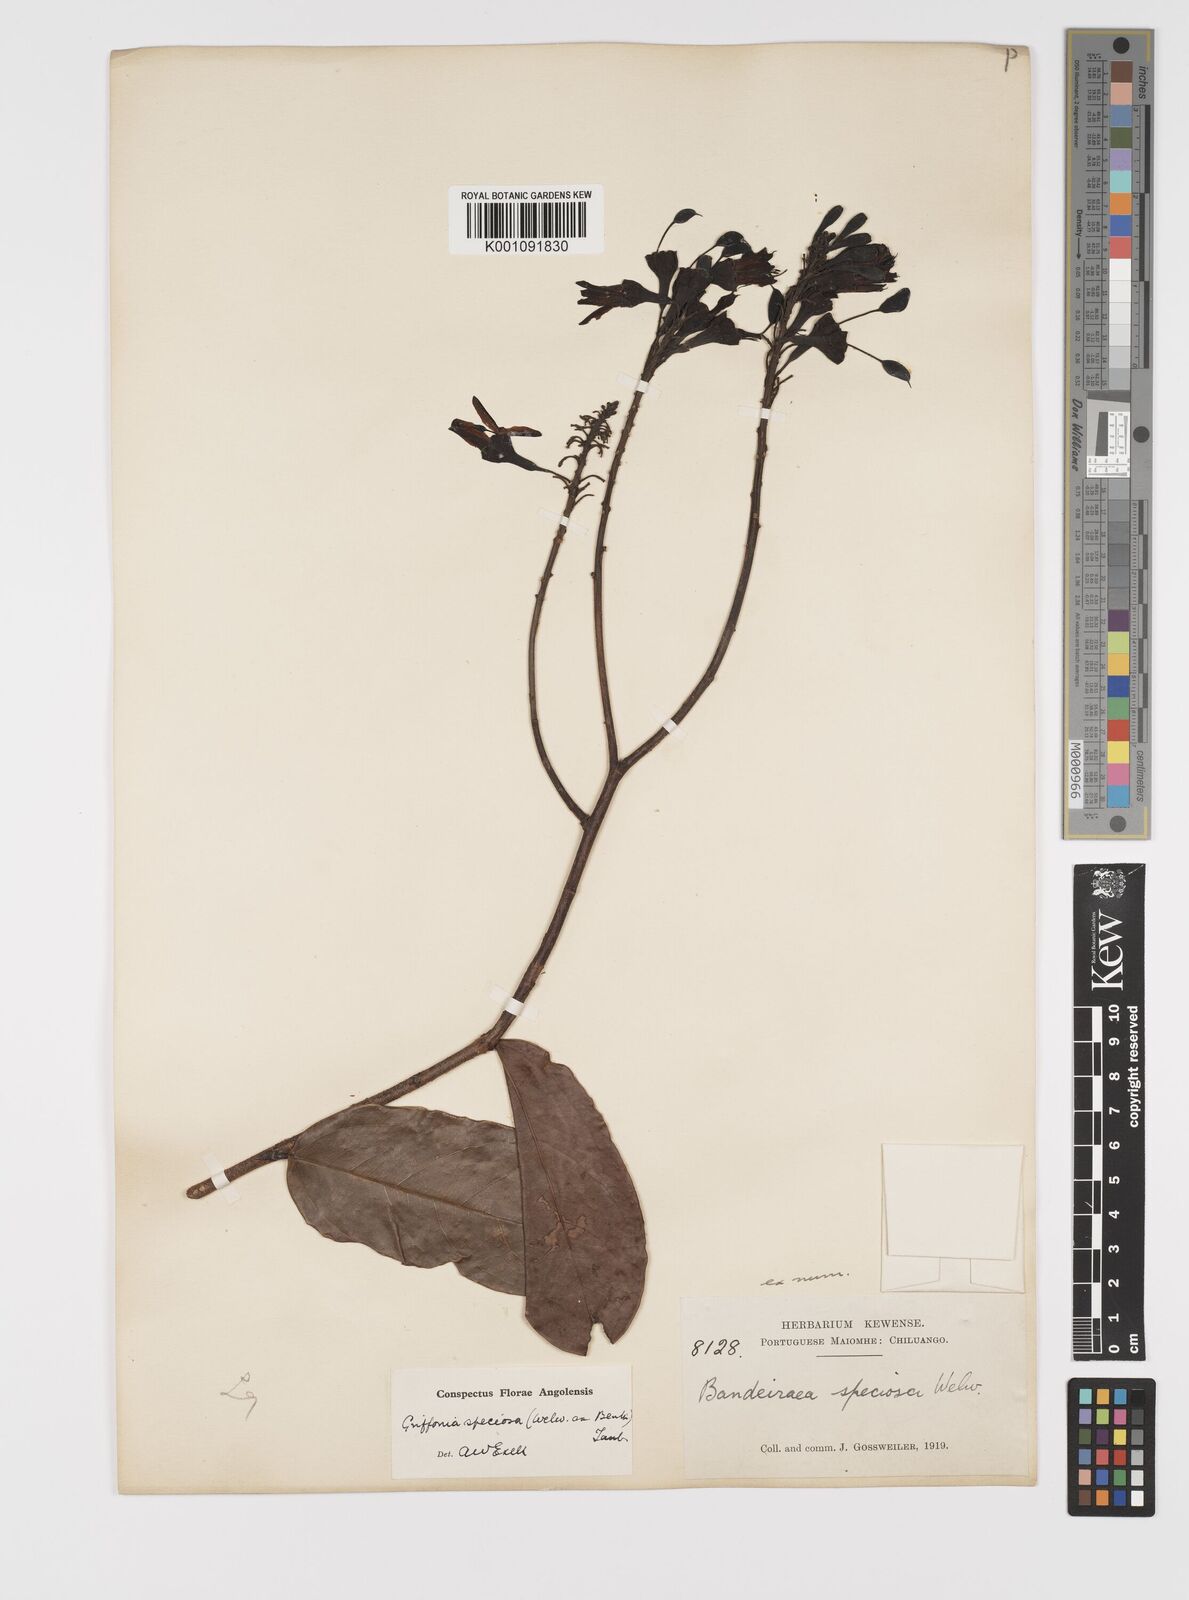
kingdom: Plantae
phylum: Tracheophyta
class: Magnoliopsida
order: Fabales
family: Fabaceae
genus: Griffonia
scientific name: Griffonia speciosa
